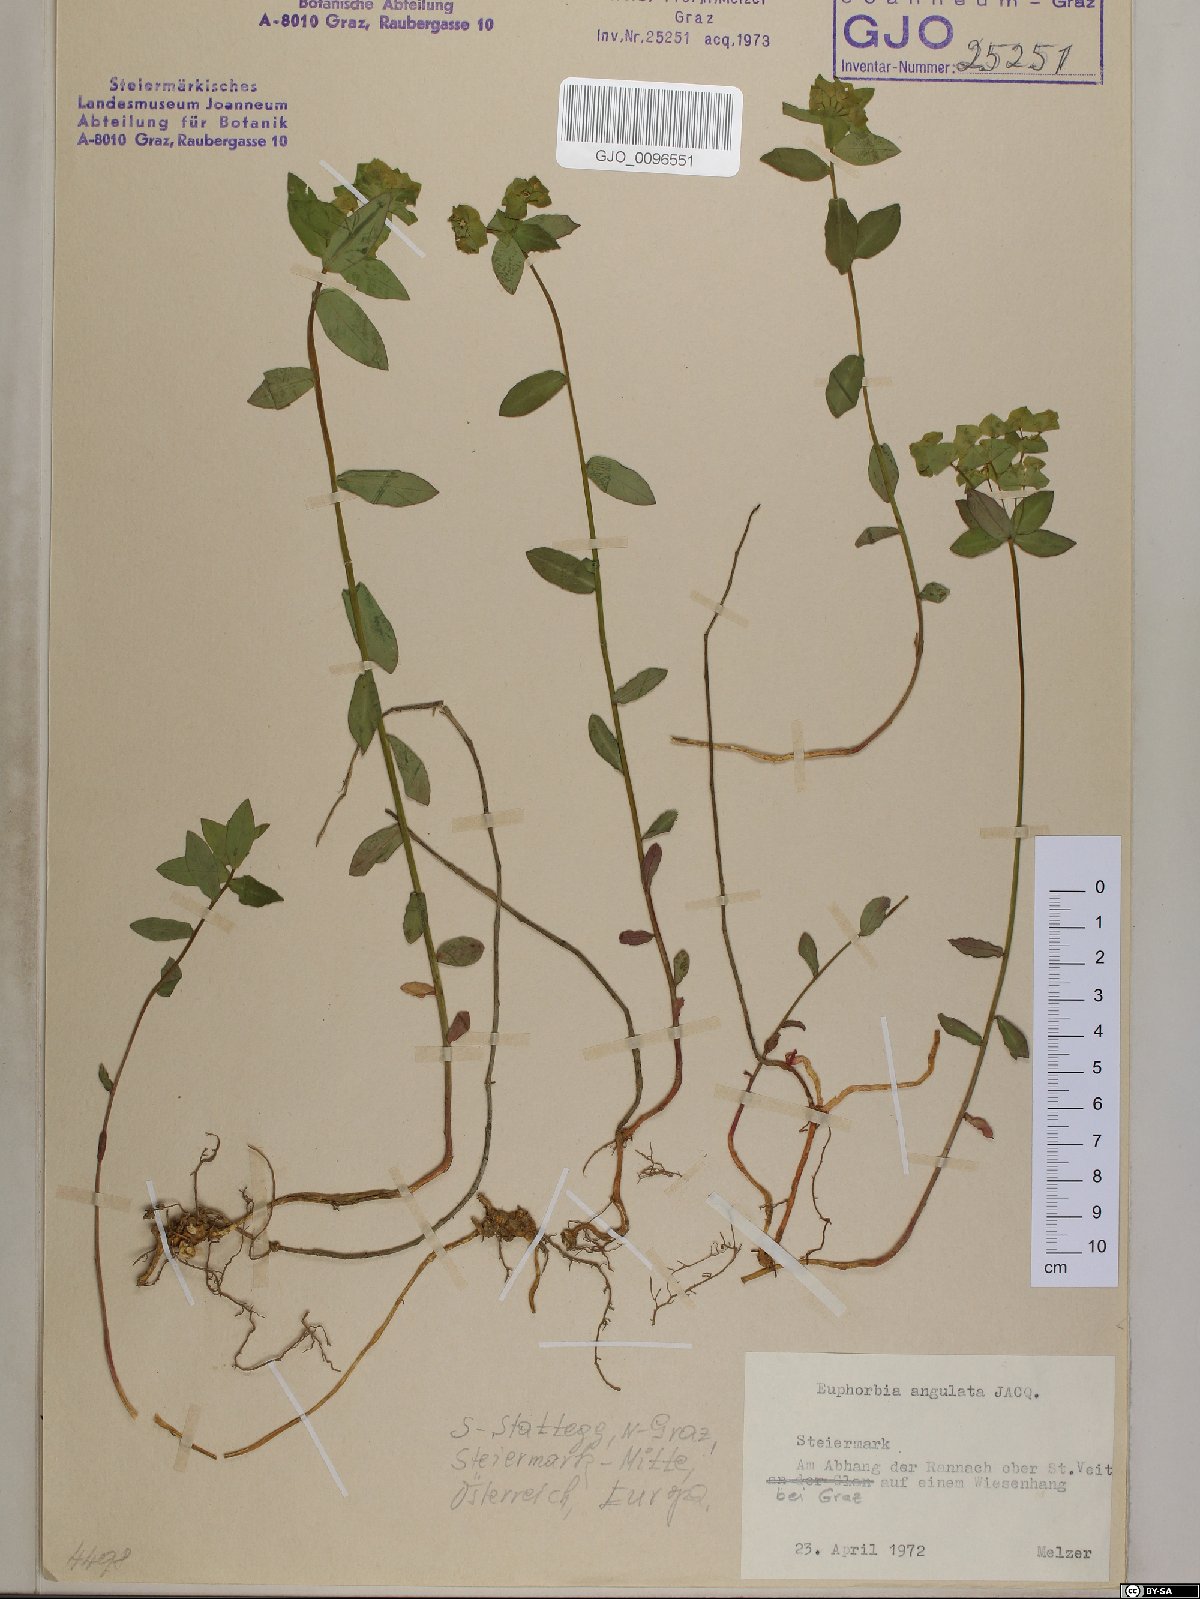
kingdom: Plantae
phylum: Tracheophyta
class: Magnoliopsida
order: Malpighiales
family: Euphorbiaceae
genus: Euphorbia
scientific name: Euphorbia angulata
